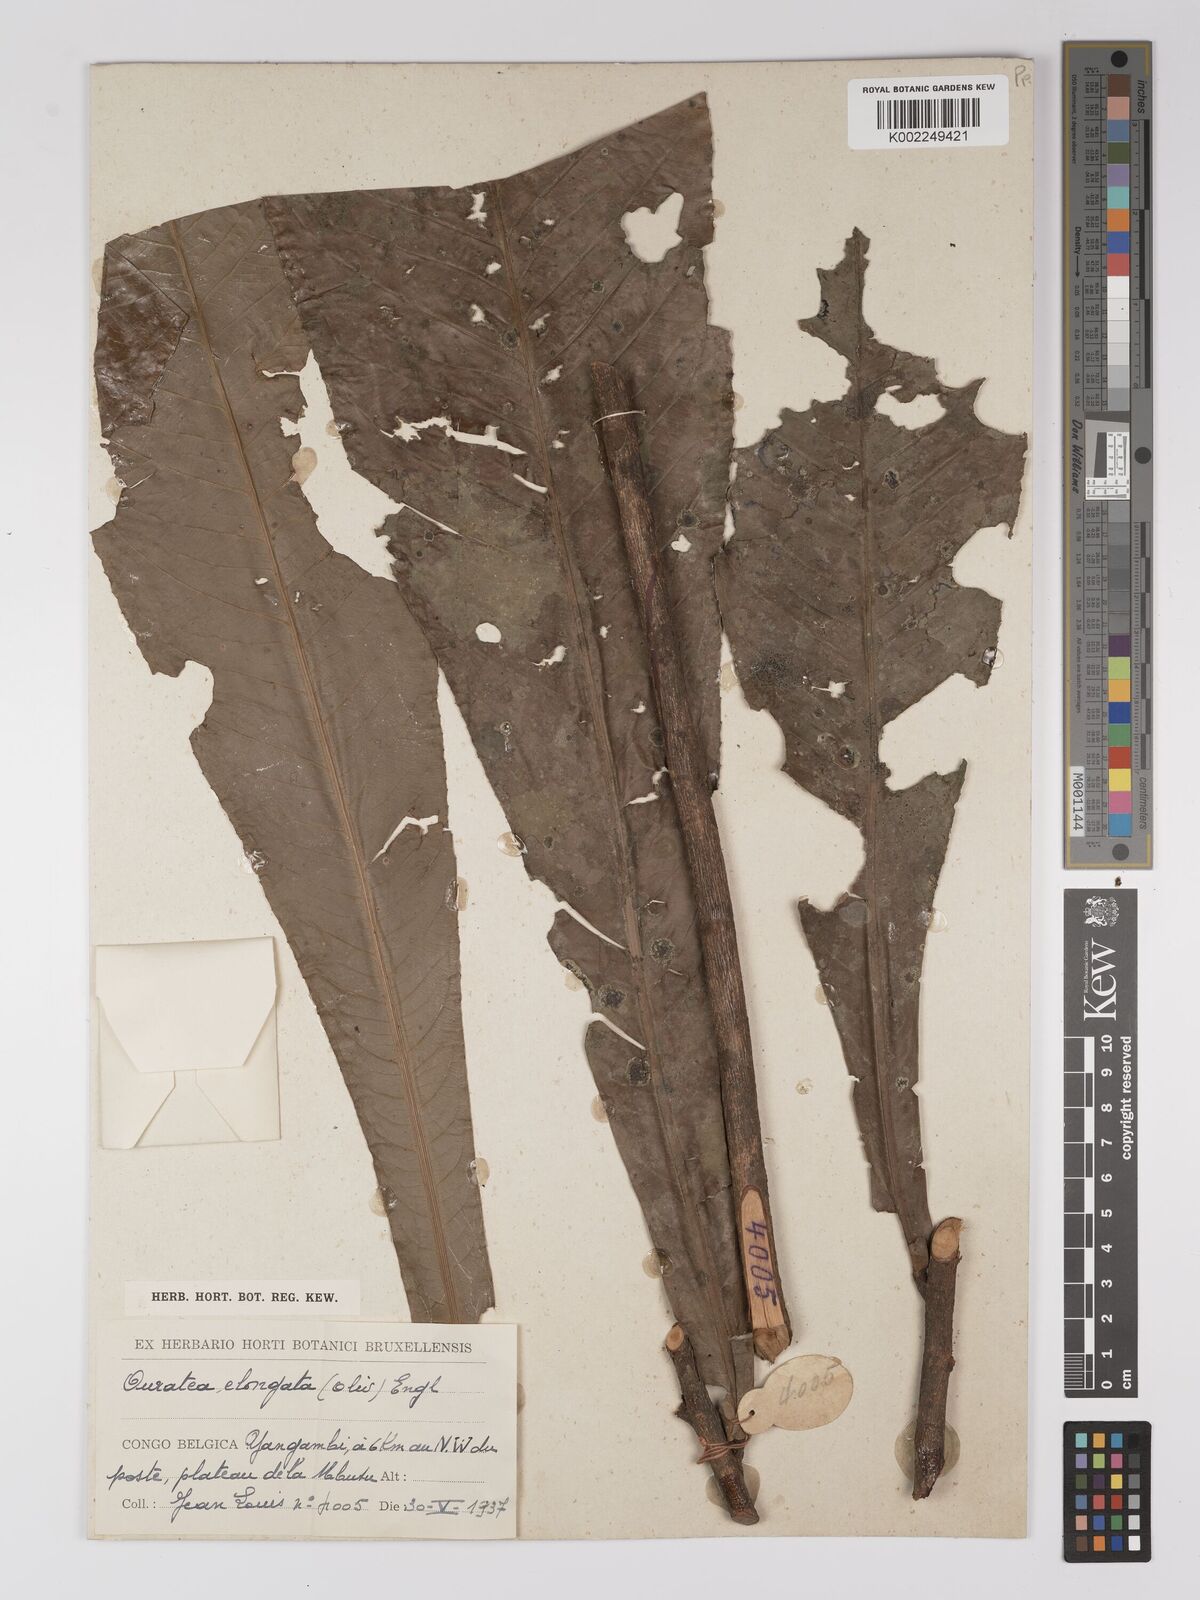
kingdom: Plantae
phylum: Tracheophyta
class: Magnoliopsida
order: Malpighiales
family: Ochnaceae
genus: Gomphia
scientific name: Gomphia elongata
